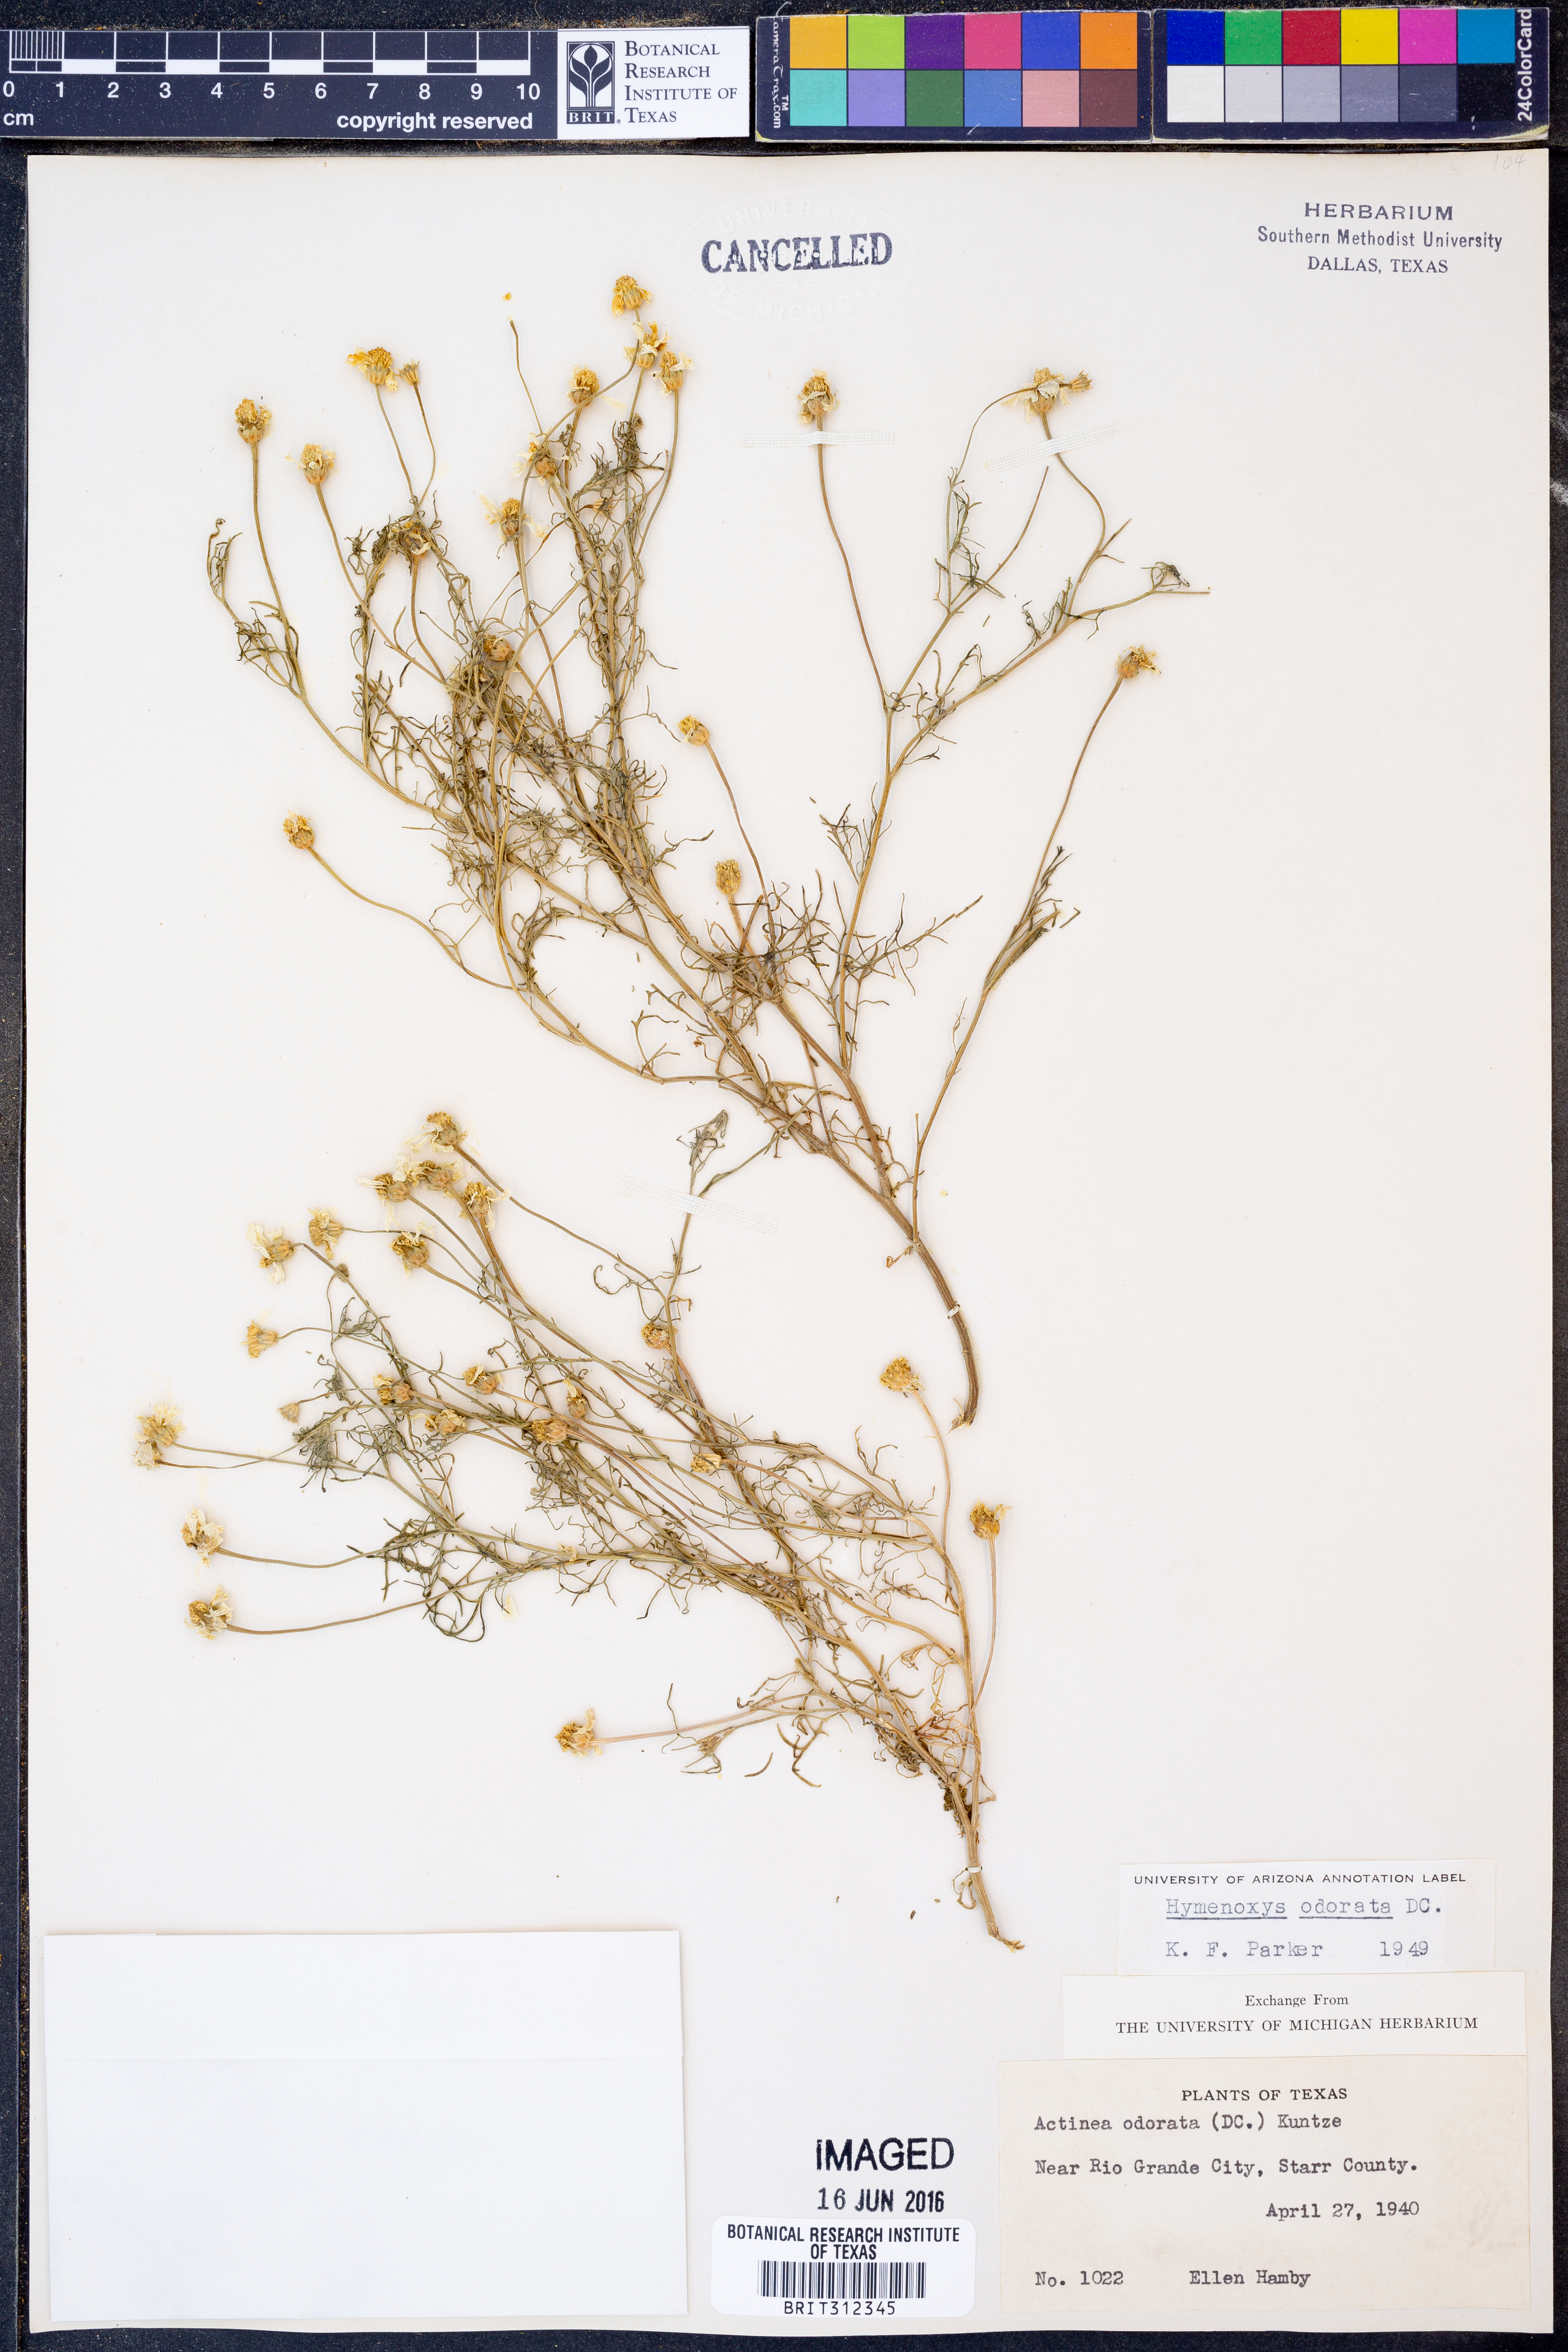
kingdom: Plantae
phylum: Tracheophyta
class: Magnoliopsida
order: Asterales
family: Asteraceae
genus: Hymenoxys
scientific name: Hymenoxys odorata
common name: Bitter rubberweed
